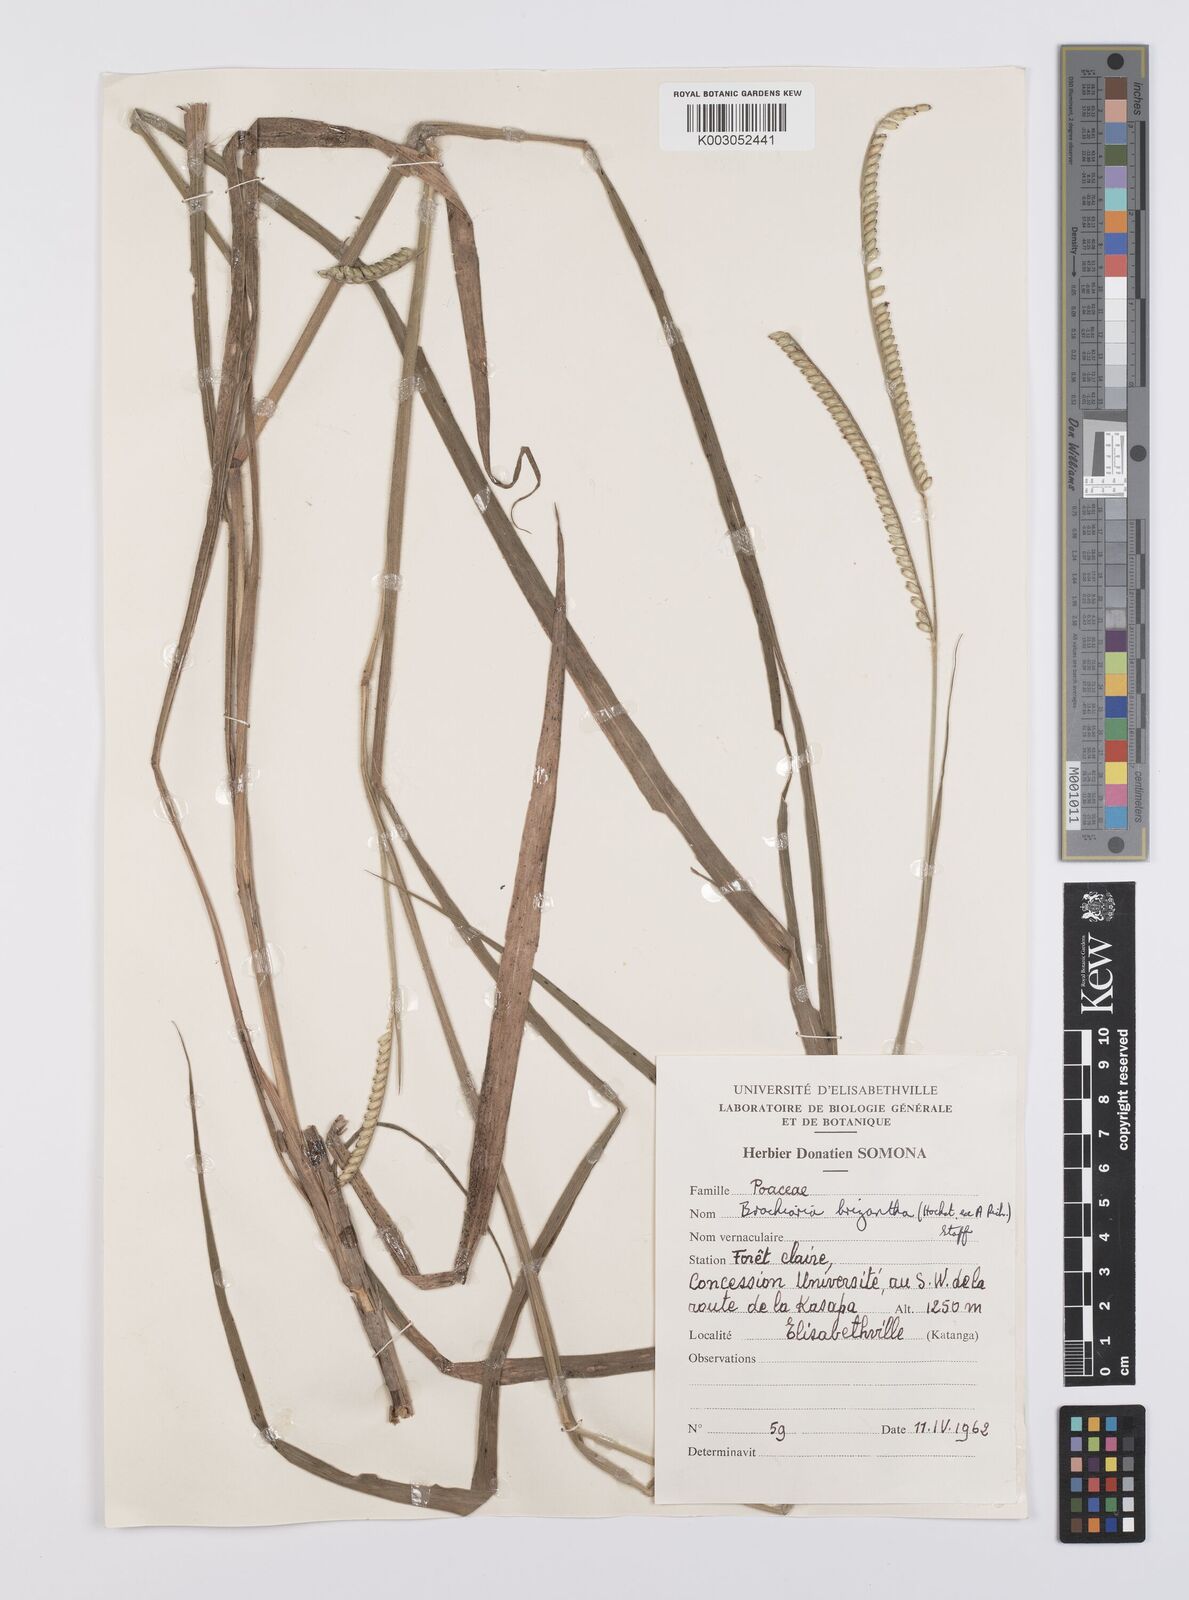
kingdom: Plantae
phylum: Tracheophyta
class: Liliopsida
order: Poales
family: Poaceae
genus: Urochloa
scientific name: Urochloa brizantha
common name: Palisade signalgrass
